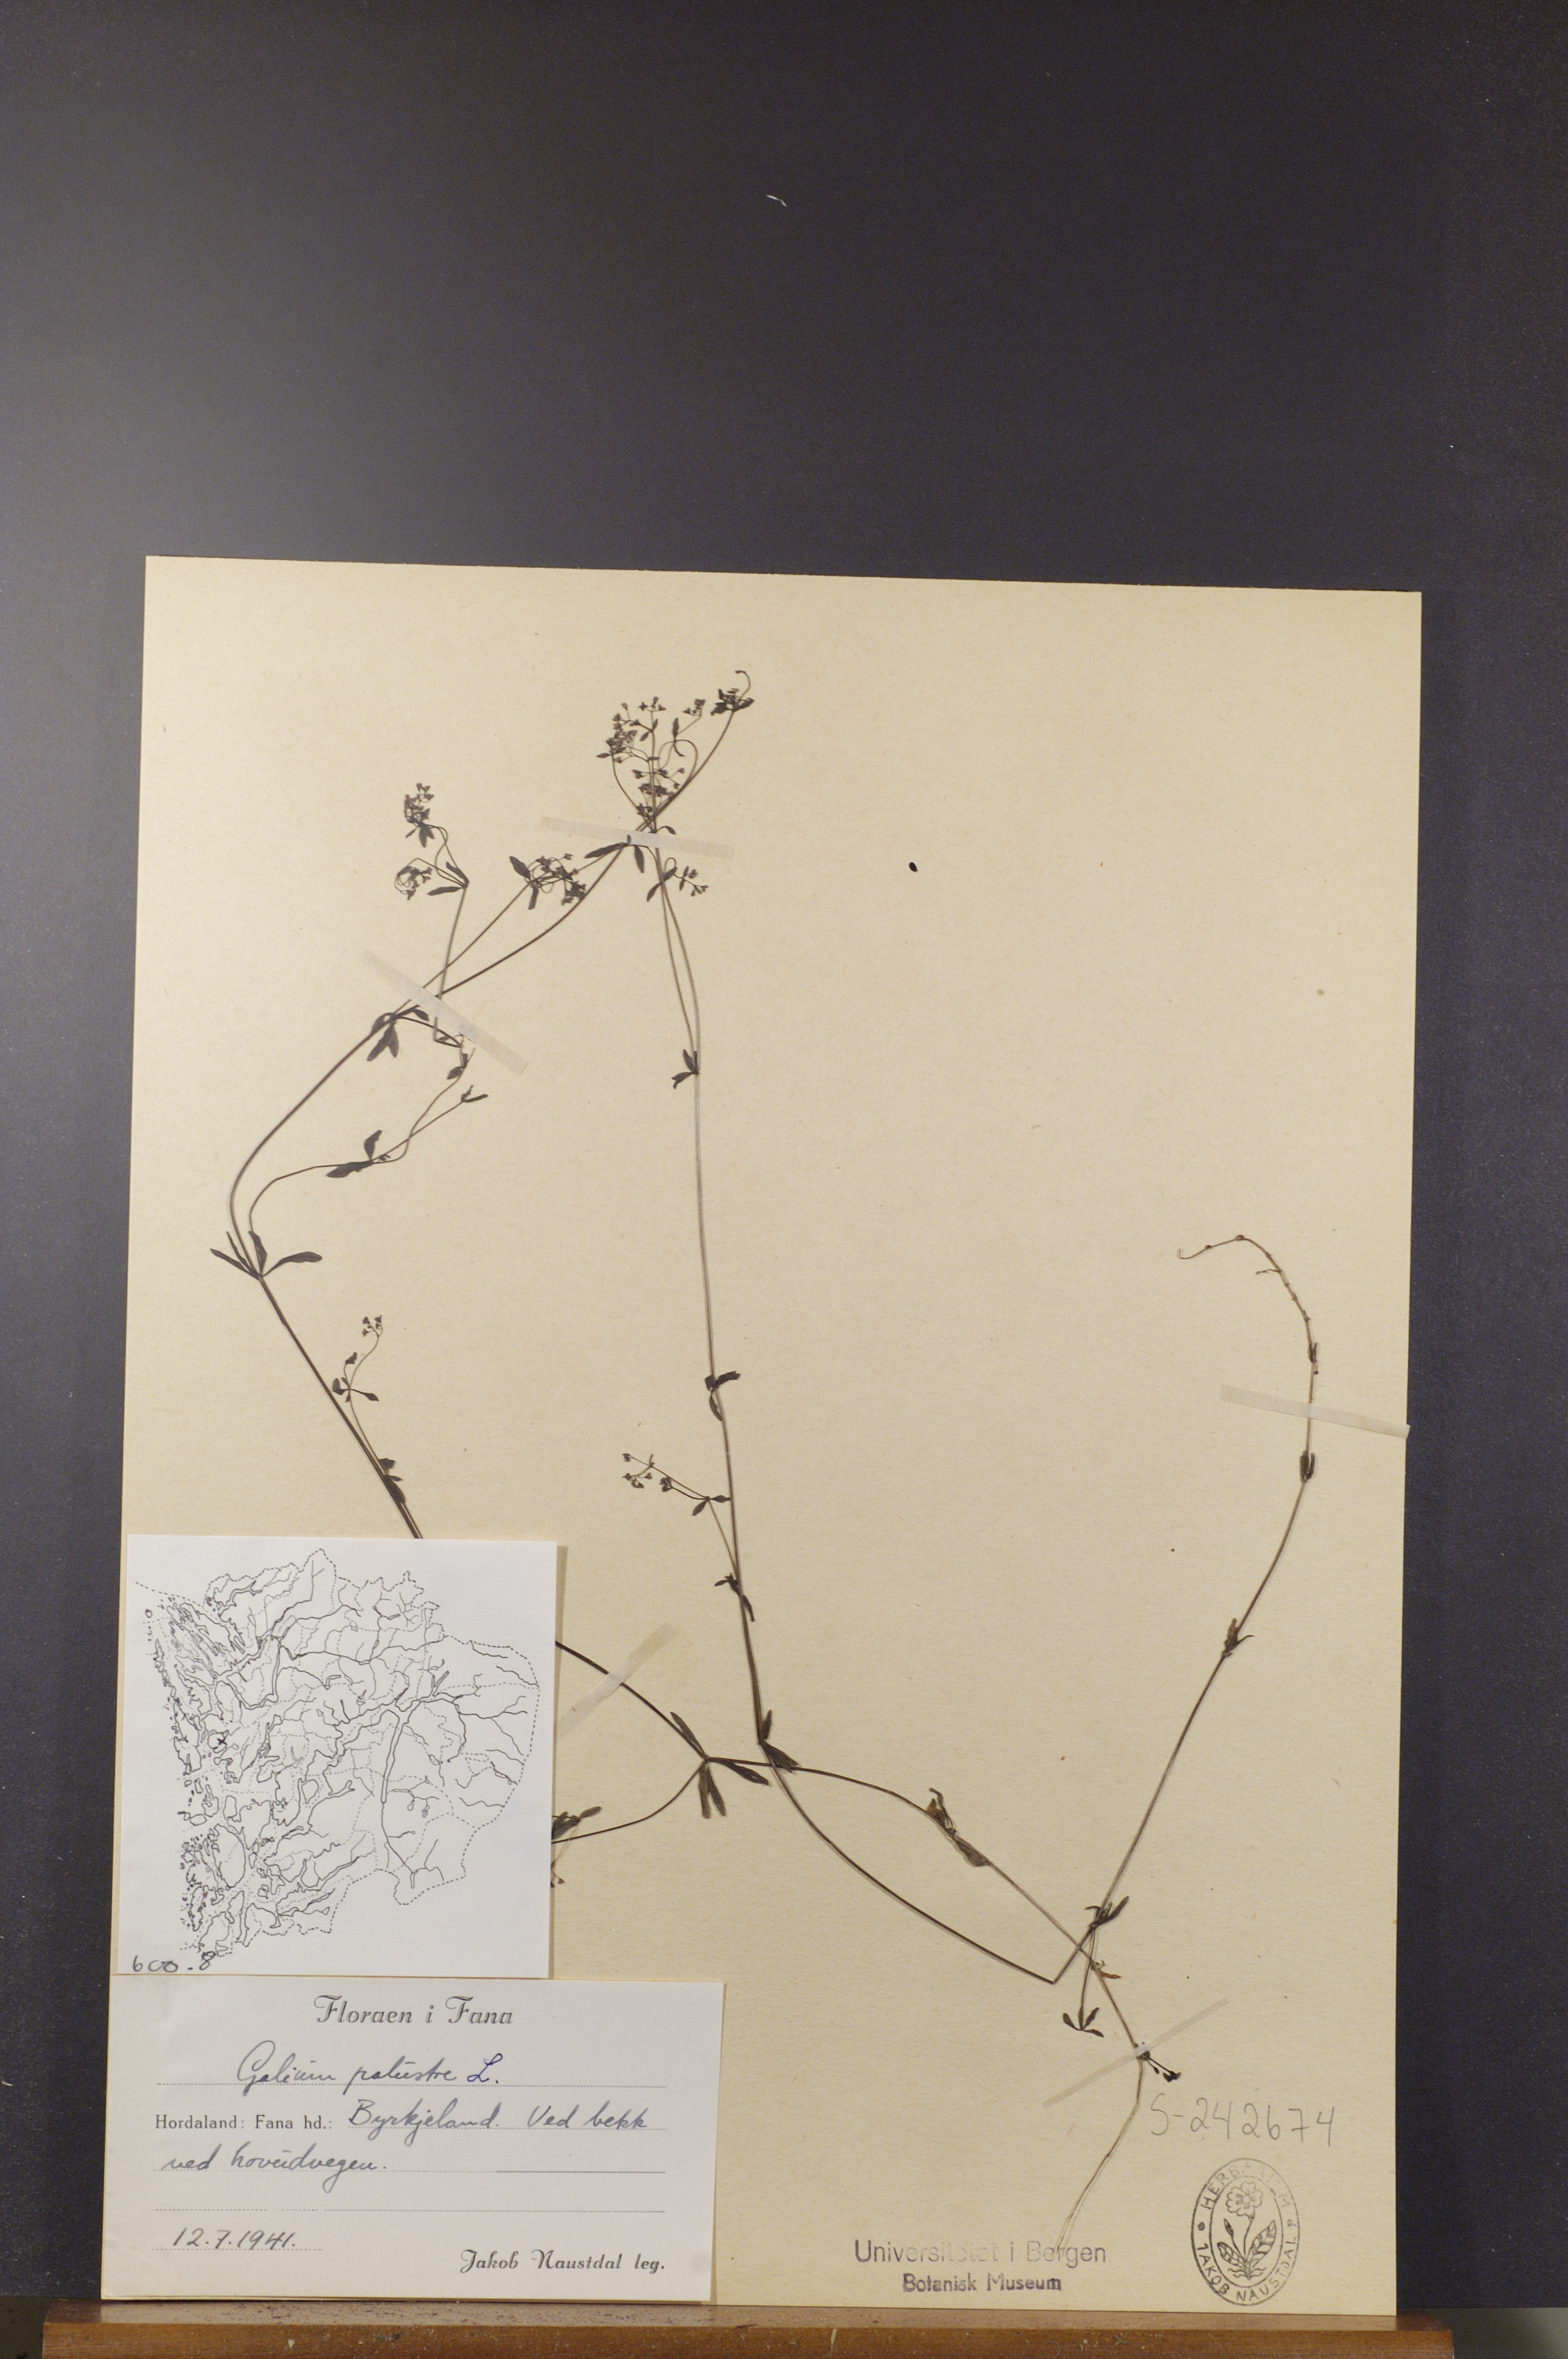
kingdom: Plantae
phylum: Tracheophyta
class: Magnoliopsida
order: Gentianales
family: Rubiaceae
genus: Galium
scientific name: Galium palustre
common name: Common marsh-bedstraw
